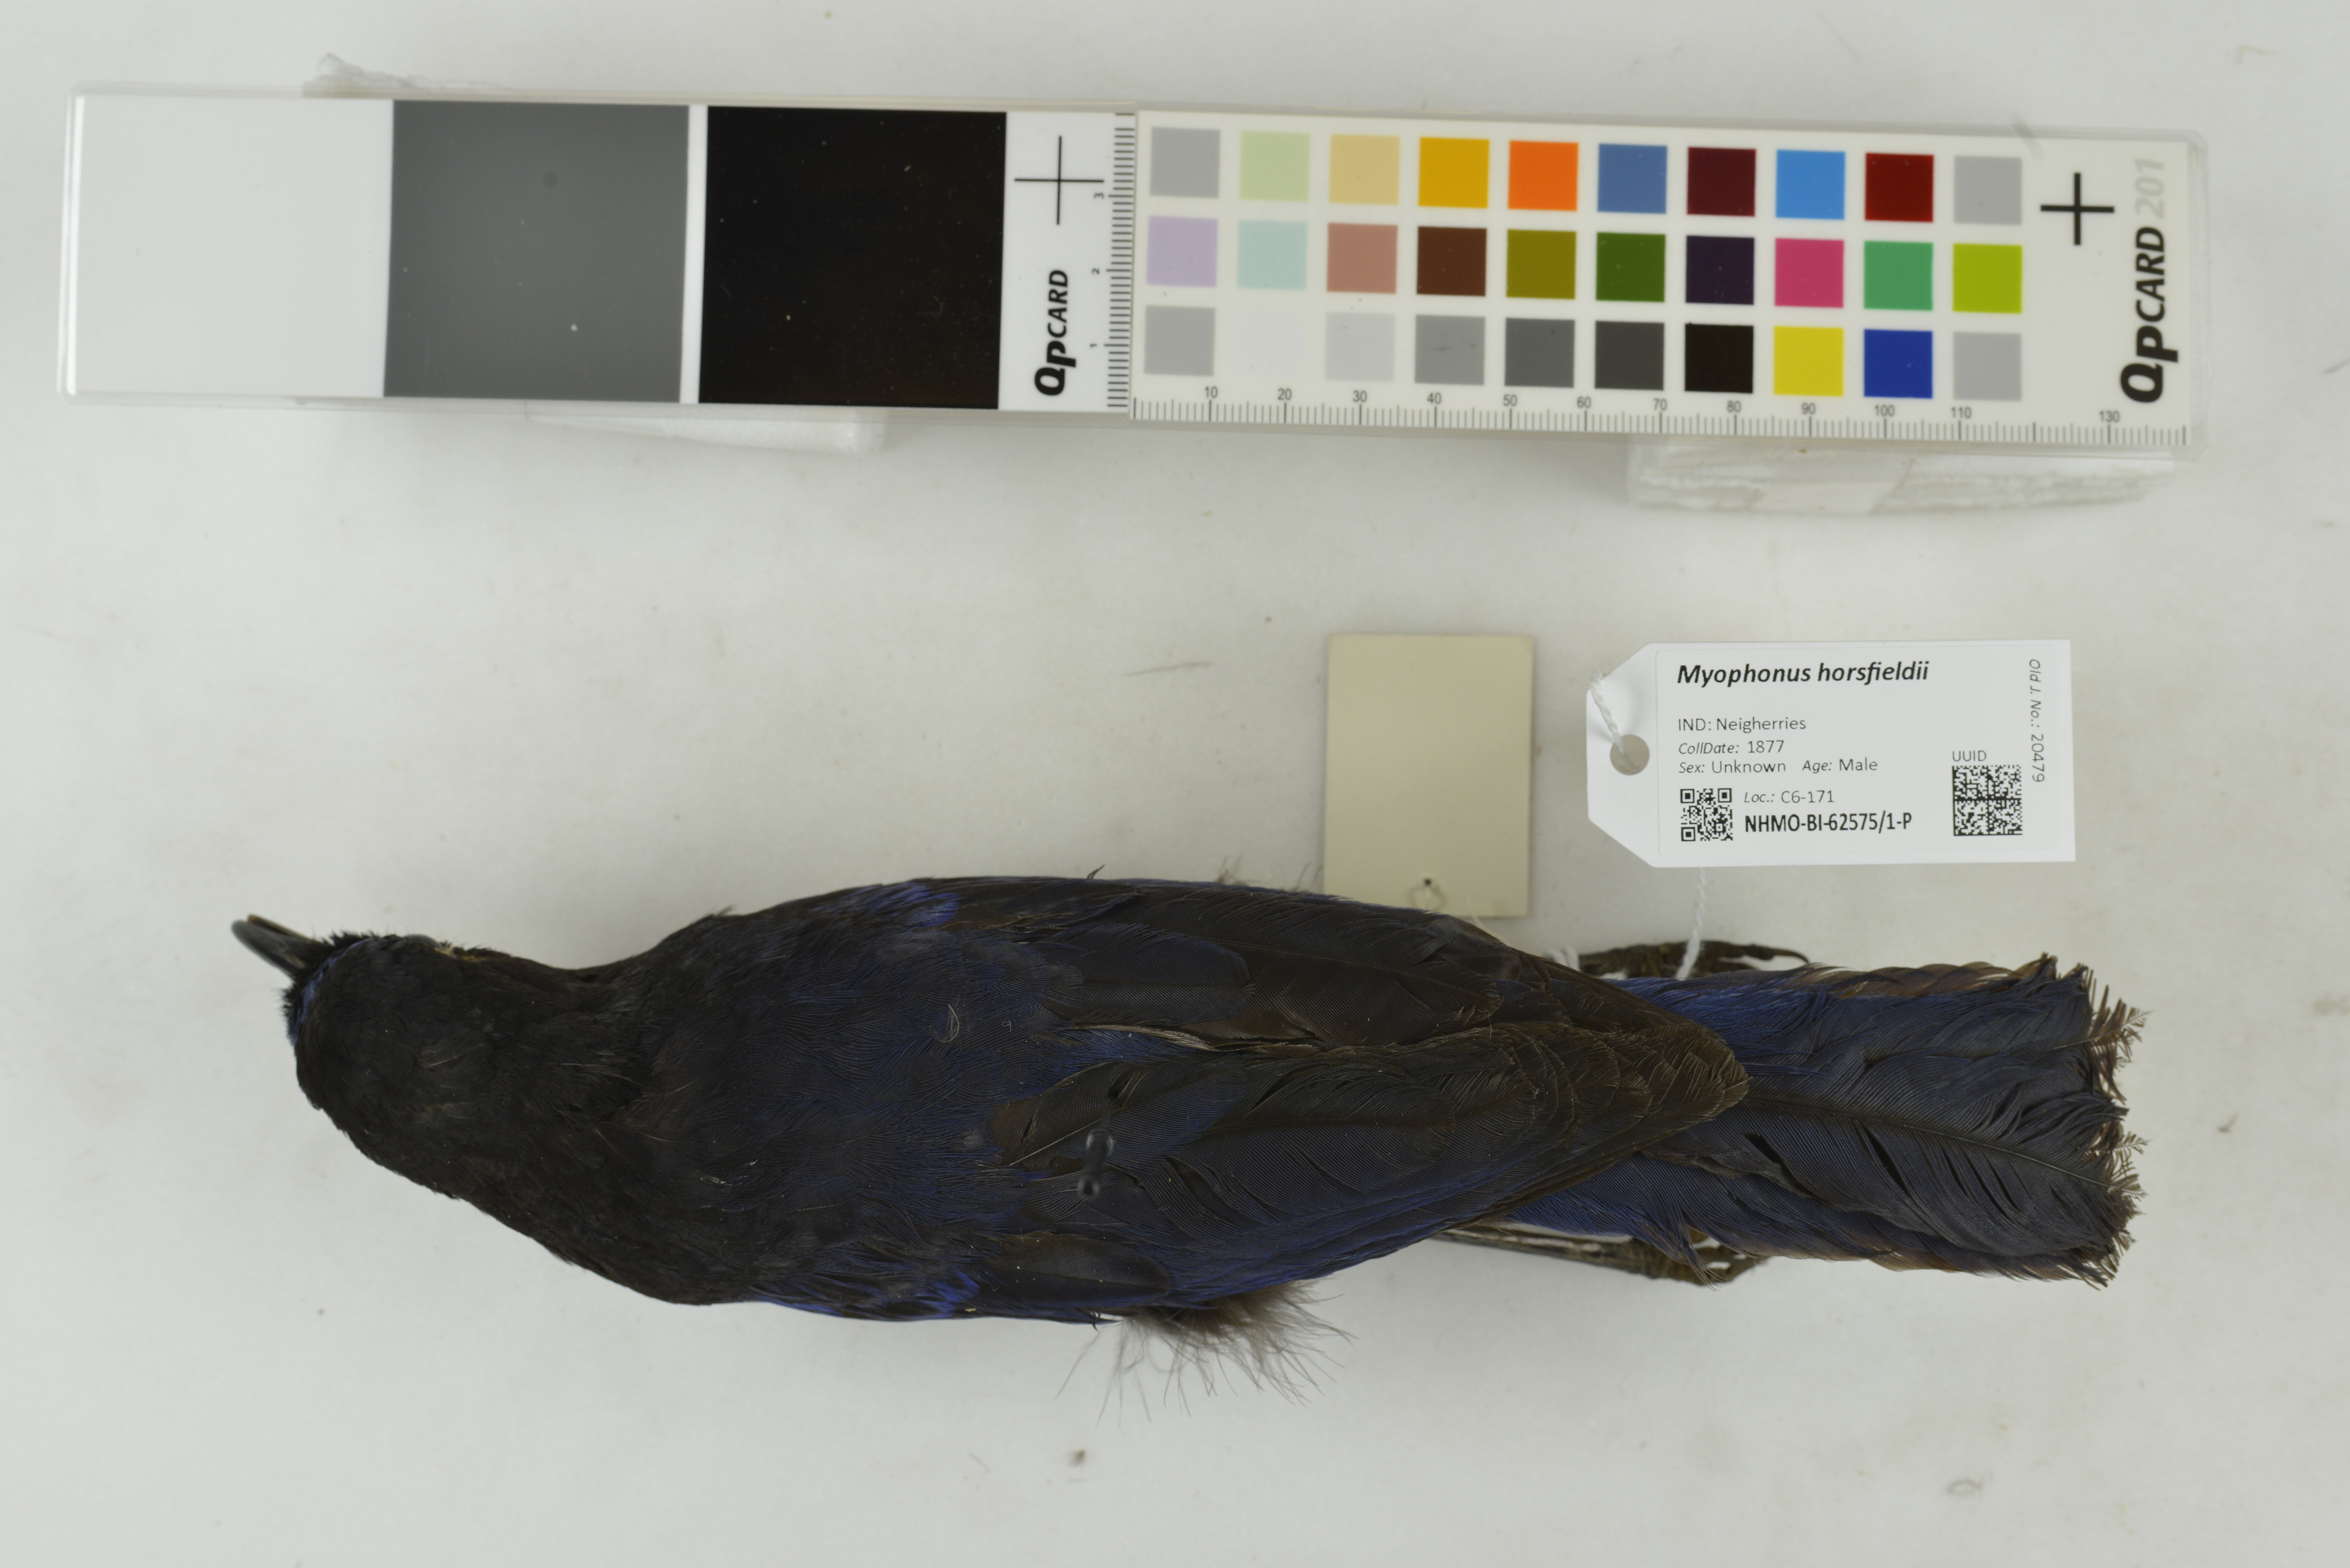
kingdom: Animalia
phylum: Chordata
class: Aves
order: Passeriformes
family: Muscicapidae
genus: Myophonus
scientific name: Myophonus horsfieldii
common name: Malabar whistling-thrush
